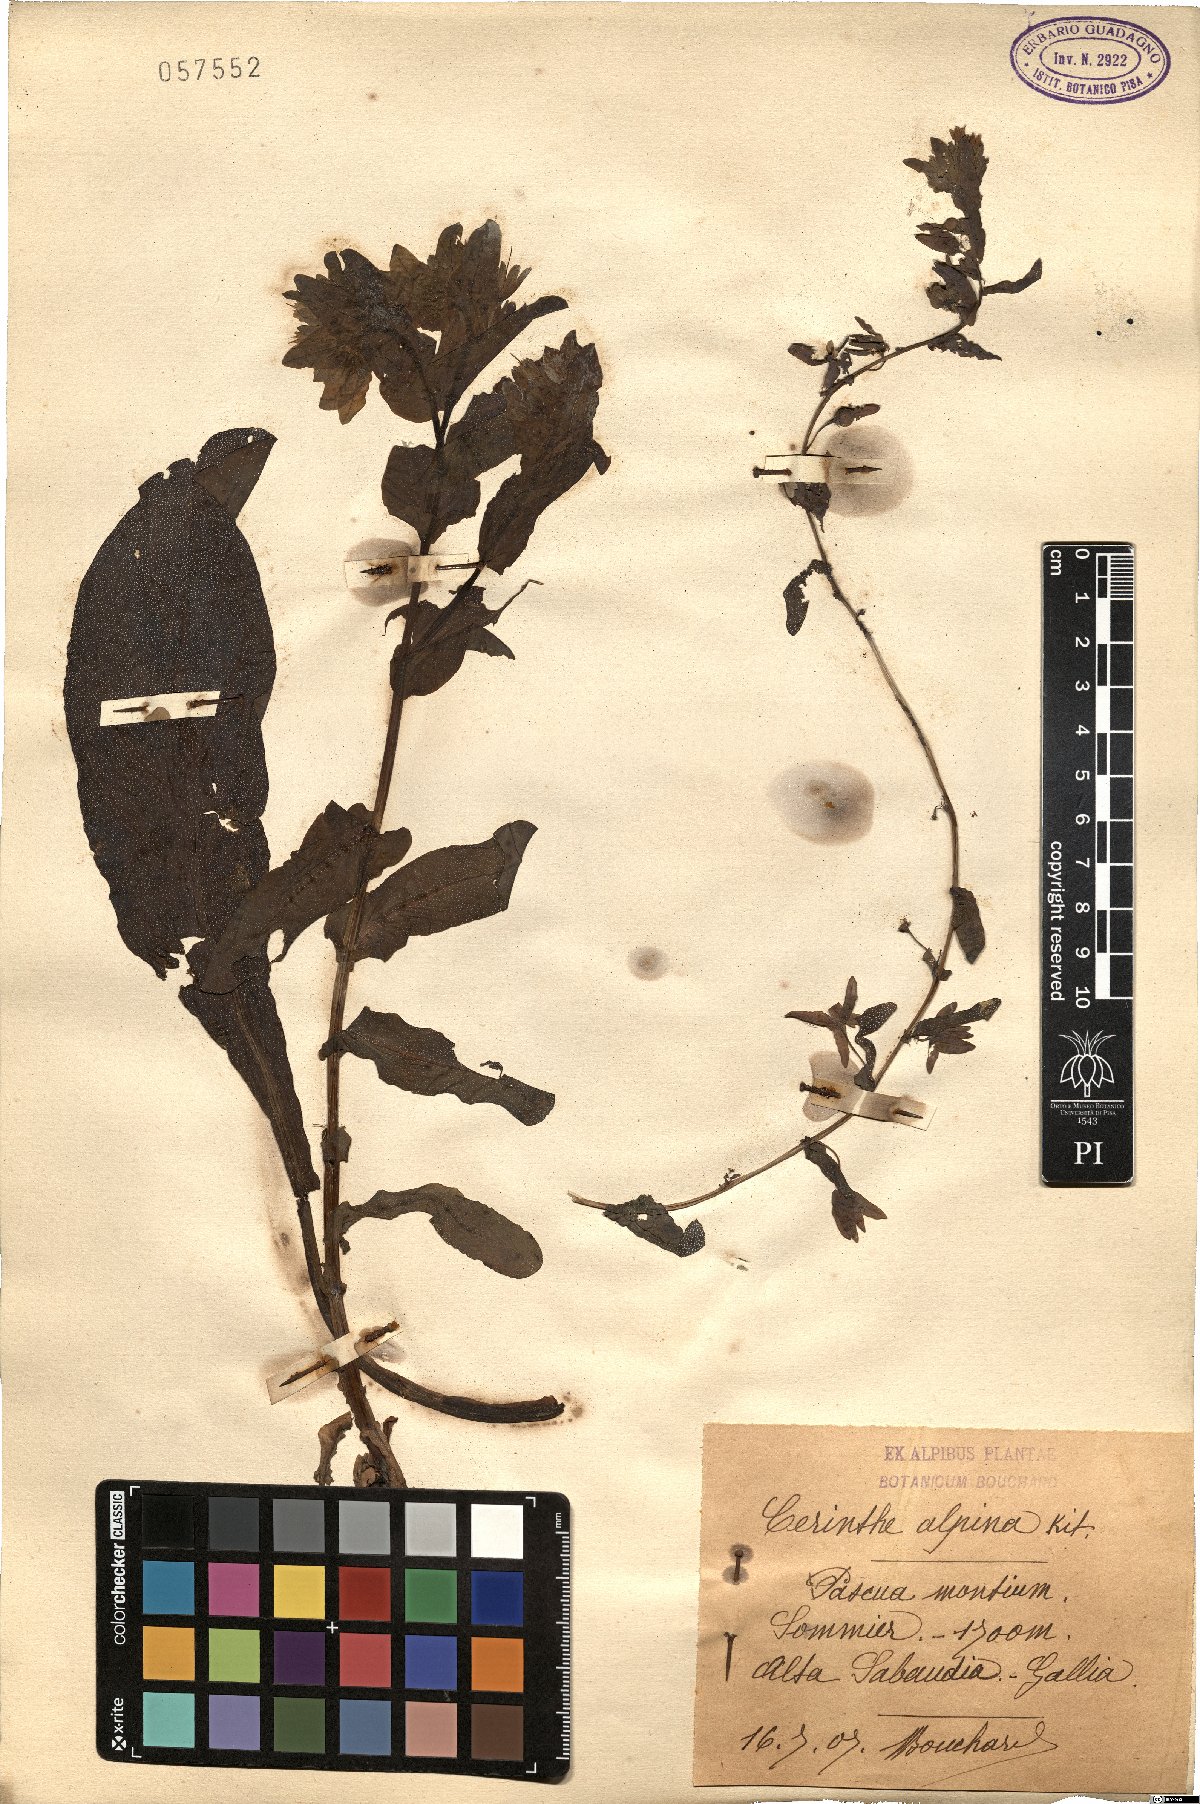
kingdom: Plantae
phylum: Tracheophyta
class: Magnoliopsida
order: Boraginales
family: Boraginaceae
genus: Cerinthe
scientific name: Cerinthe glabra
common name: Smooth honeywort
